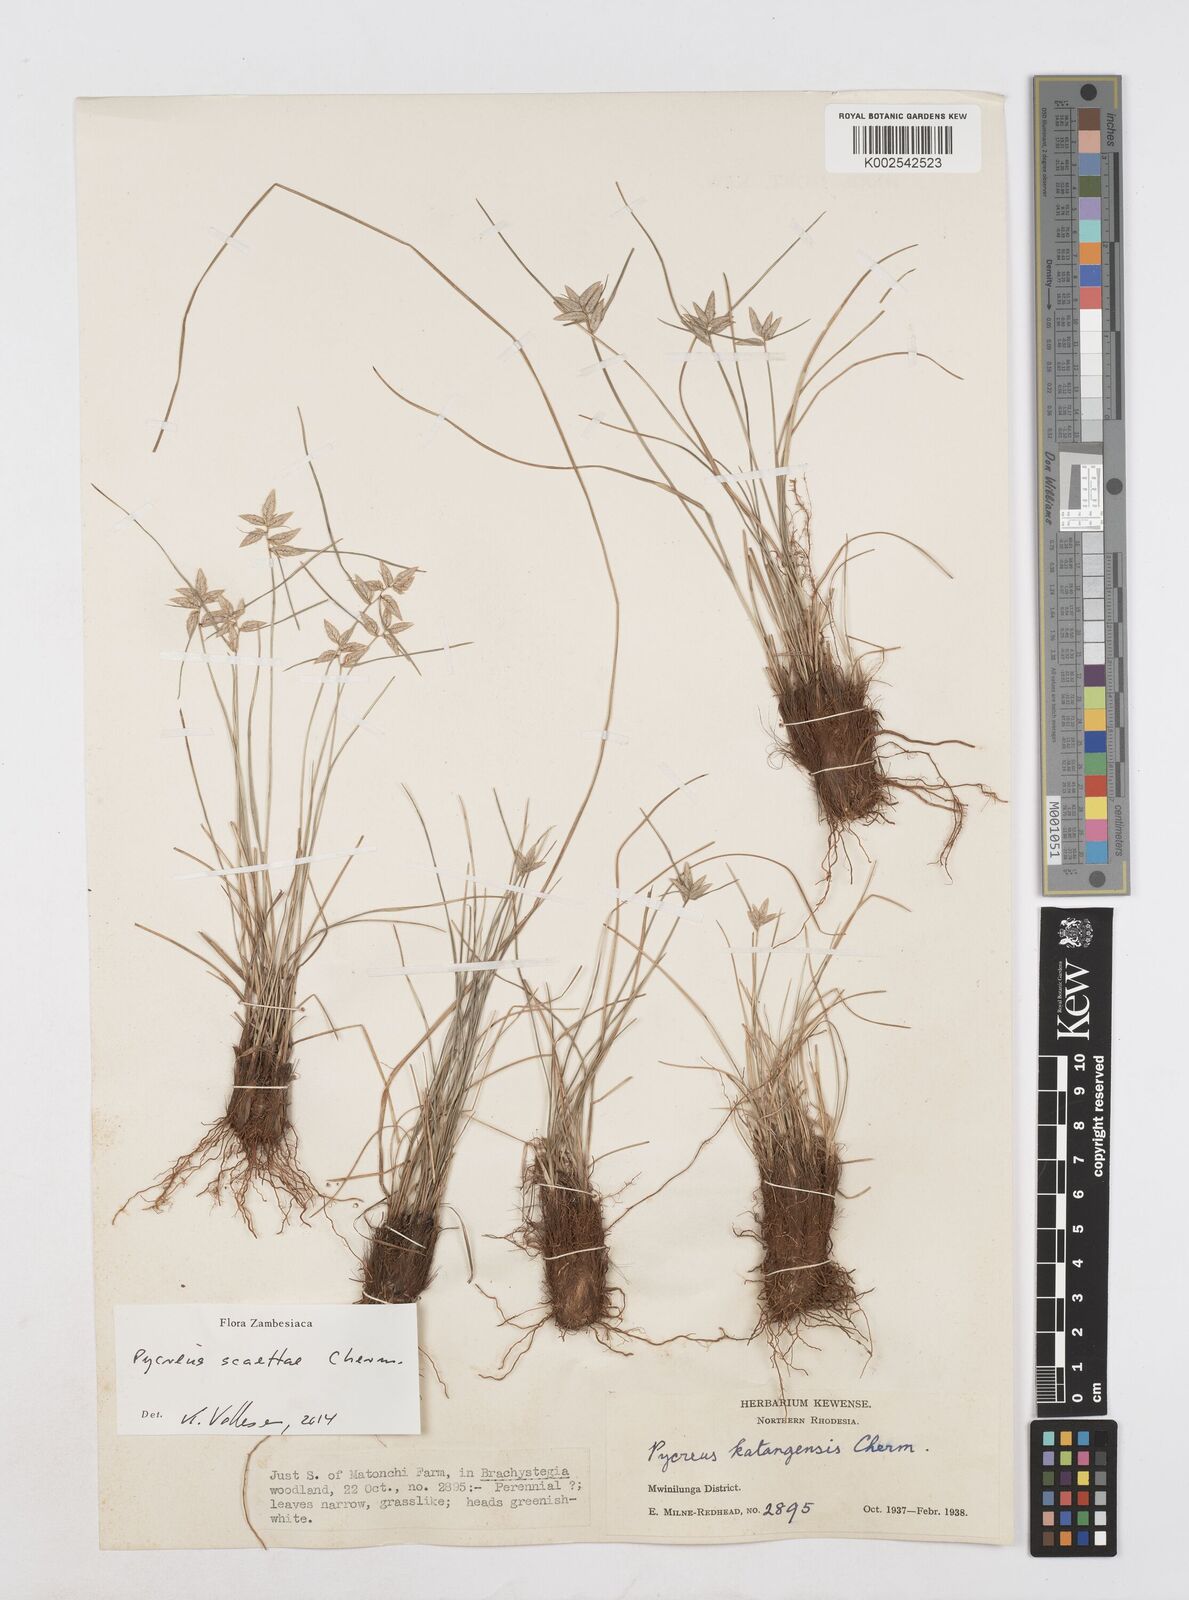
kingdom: Plantae
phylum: Tracheophyta
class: Liliopsida
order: Poales
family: Cyperaceae
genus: Cyperus
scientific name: Cyperus scaettae
